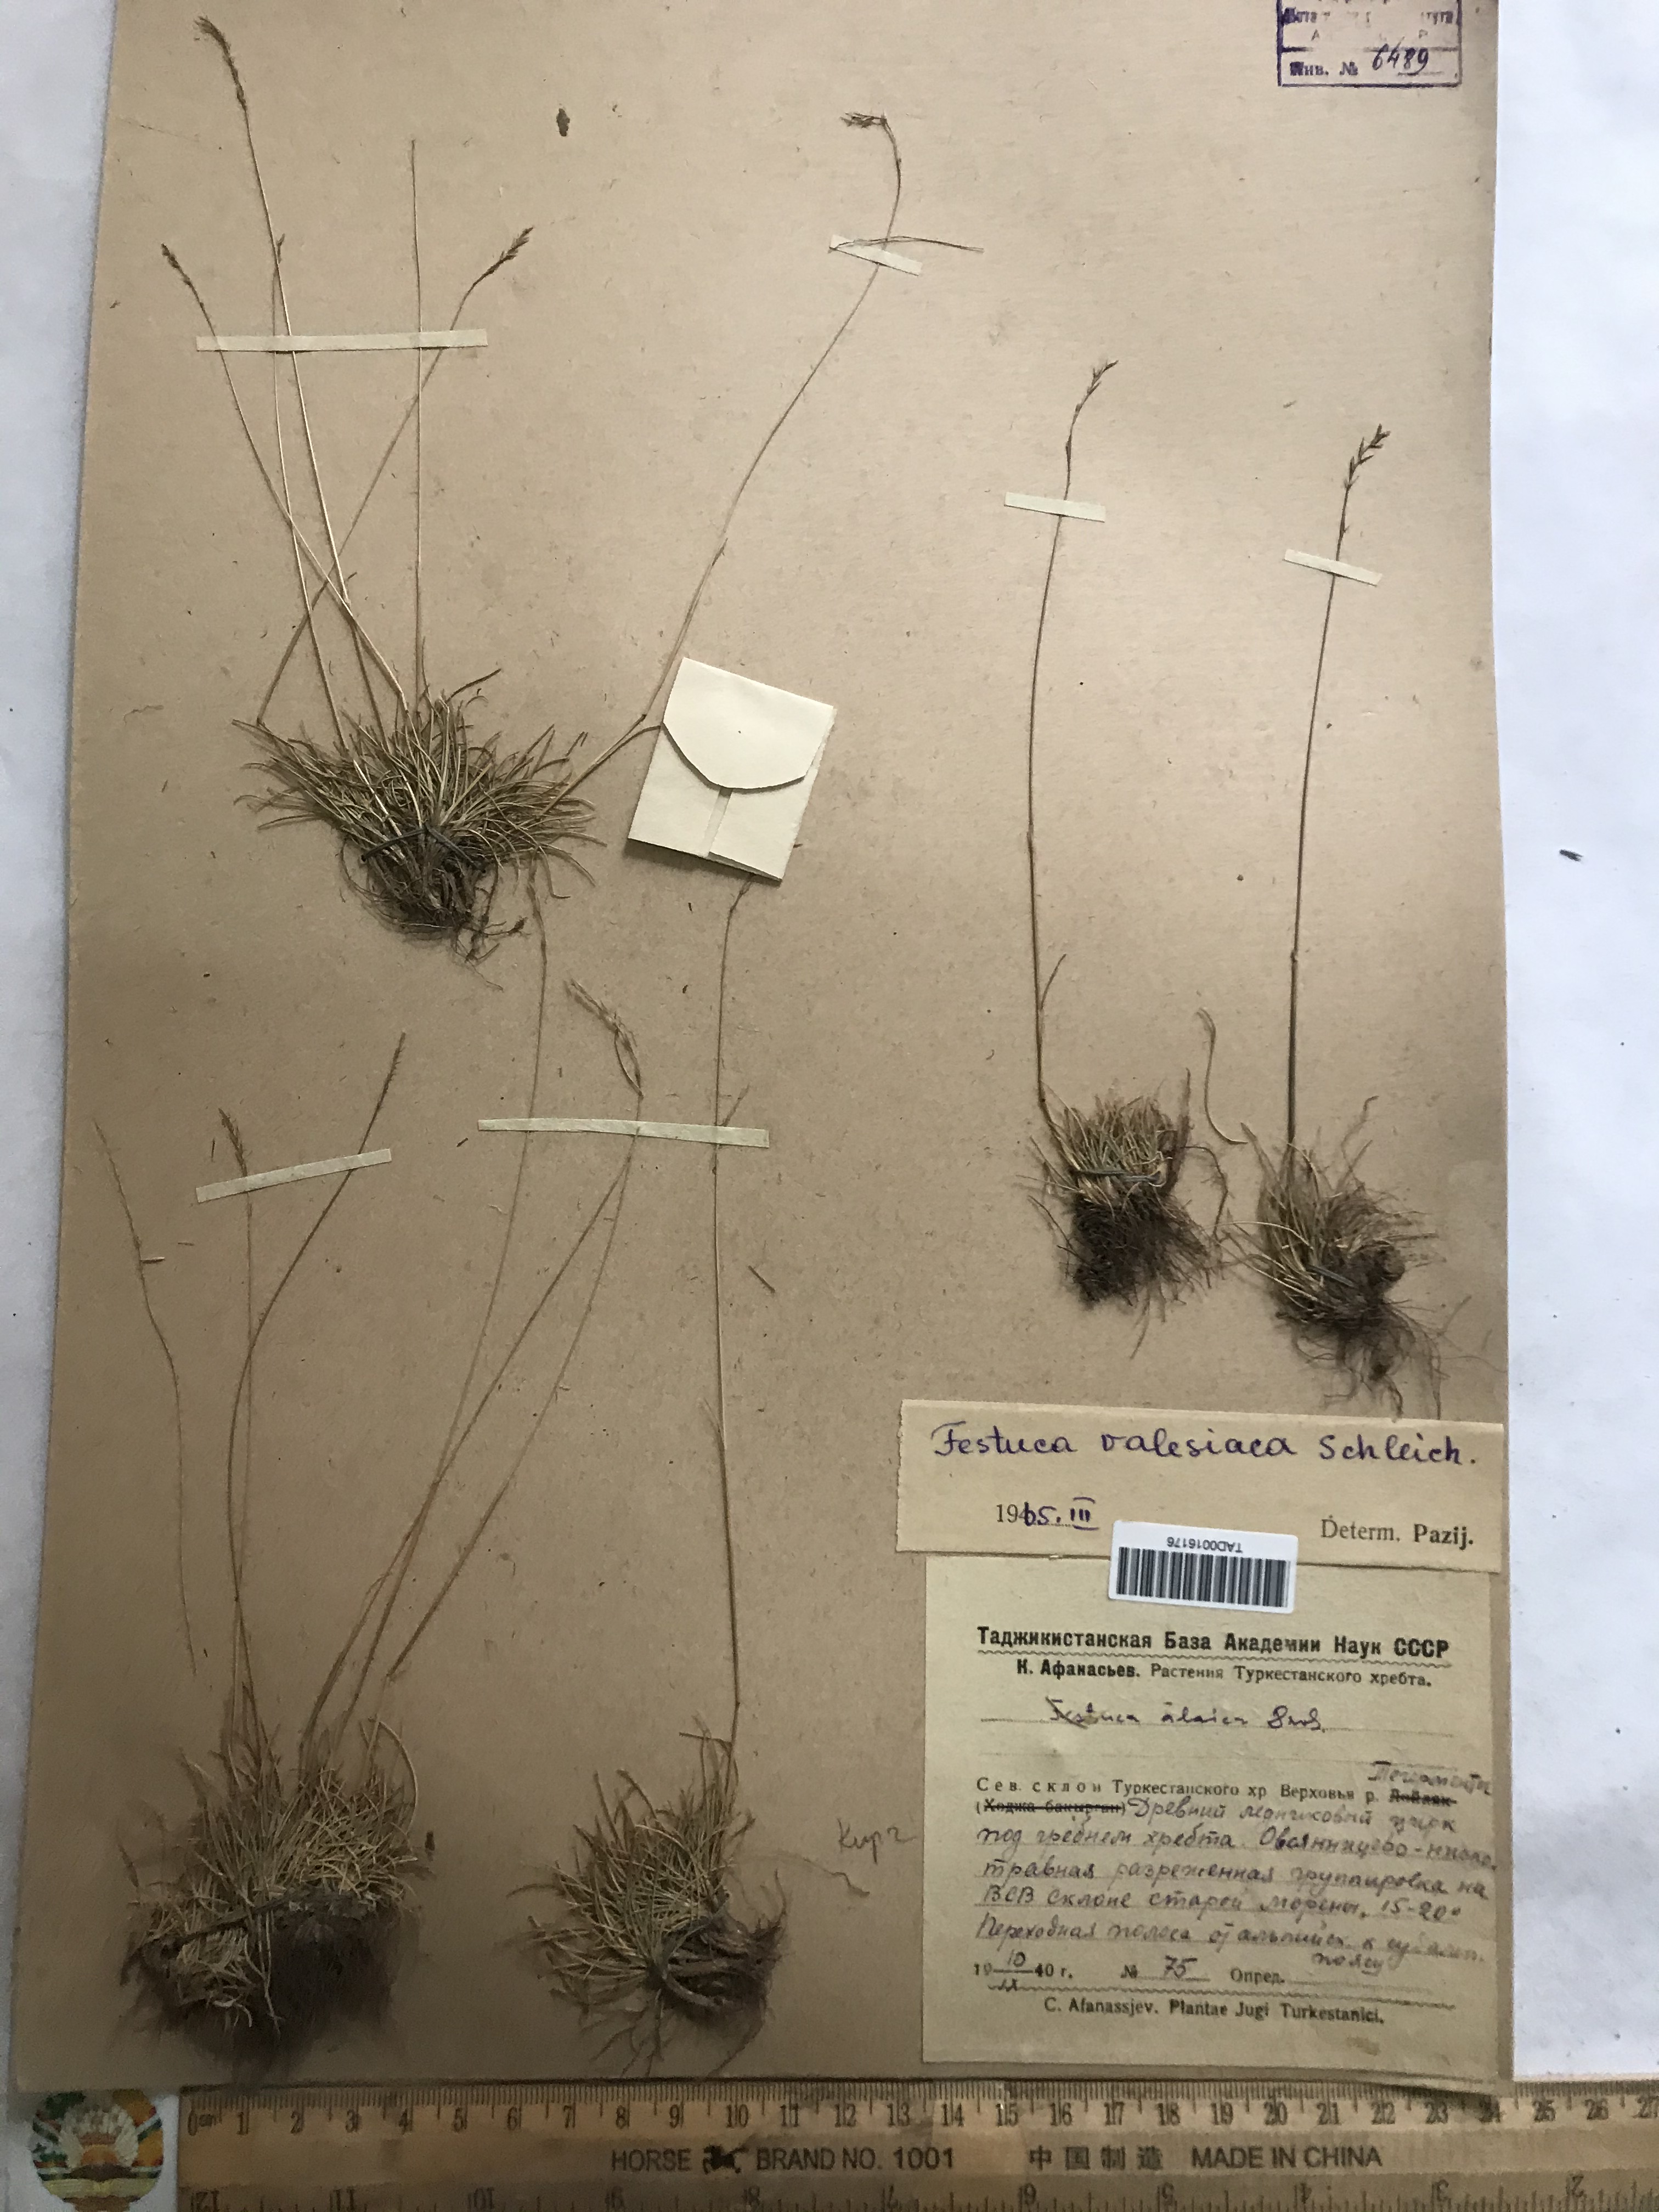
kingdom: Plantae
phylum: Tracheophyta
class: Liliopsida
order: Poales
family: Poaceae
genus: Festuca
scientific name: Festuca valesiaca
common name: Volga fescue
